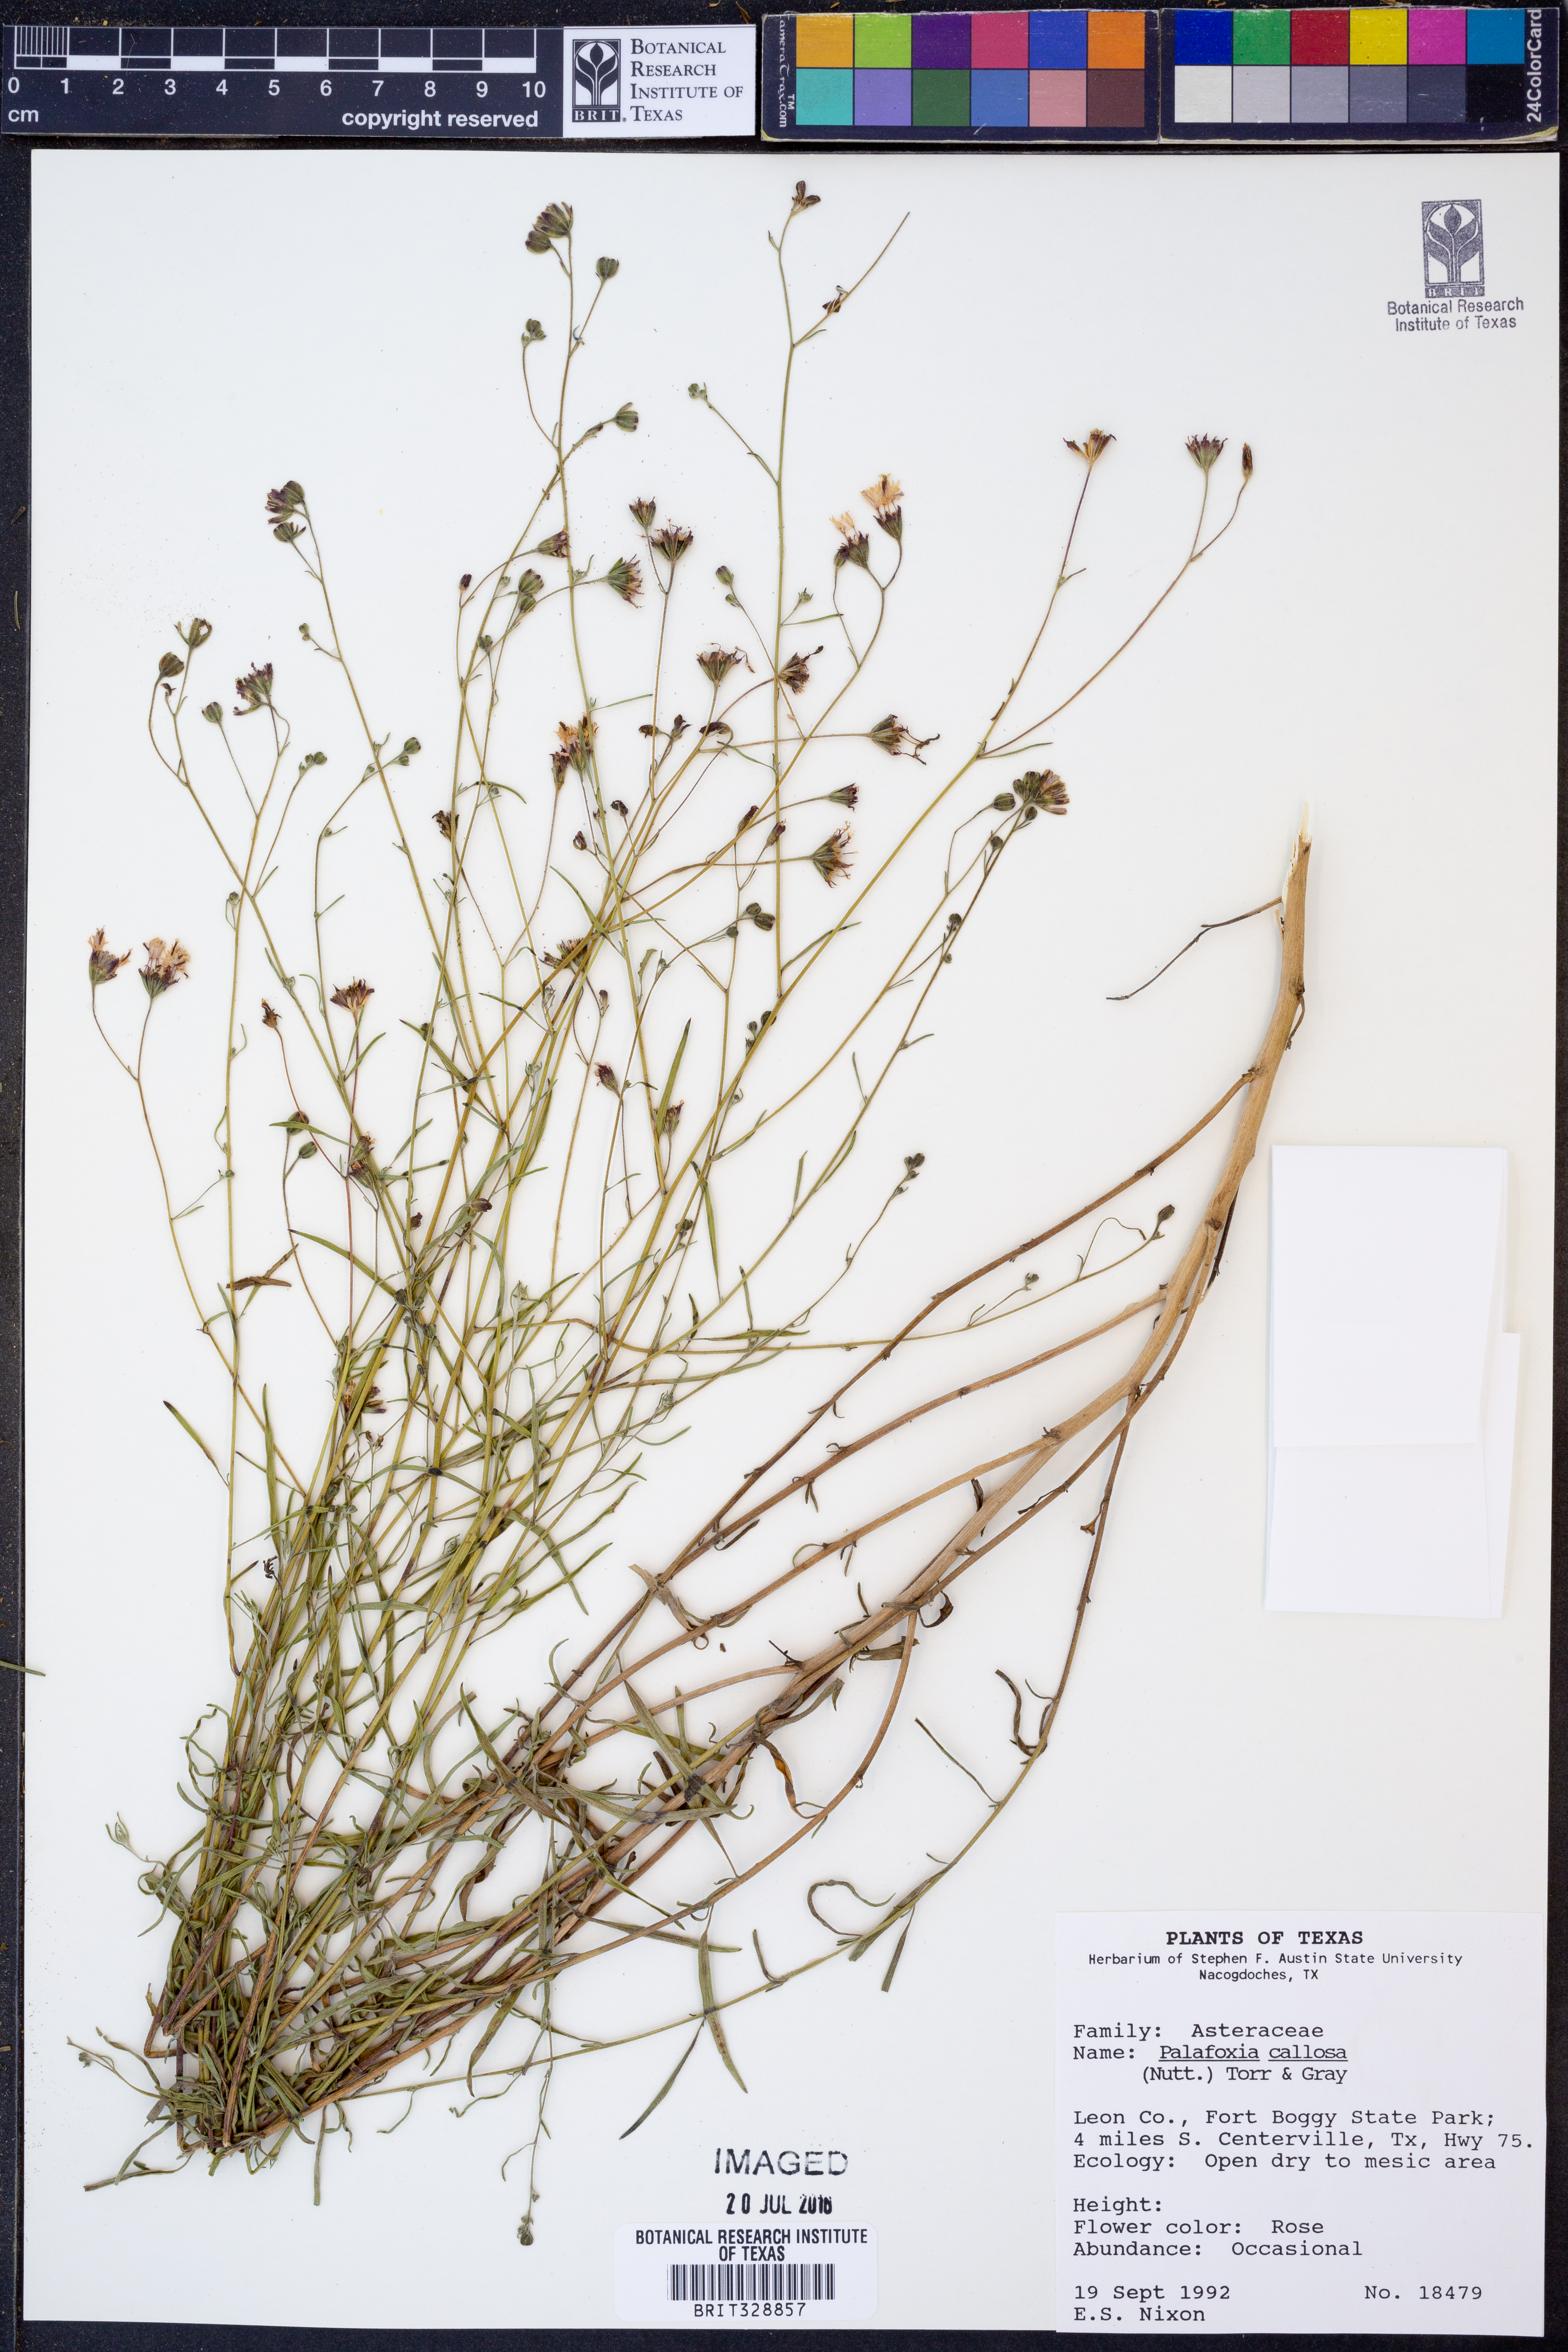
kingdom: Plantae
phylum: Tracheophyta
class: Magnoliopsida
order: Asterales
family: Asteraceae
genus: Palafoxia
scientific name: Palafoxia callosa
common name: Small palafox
